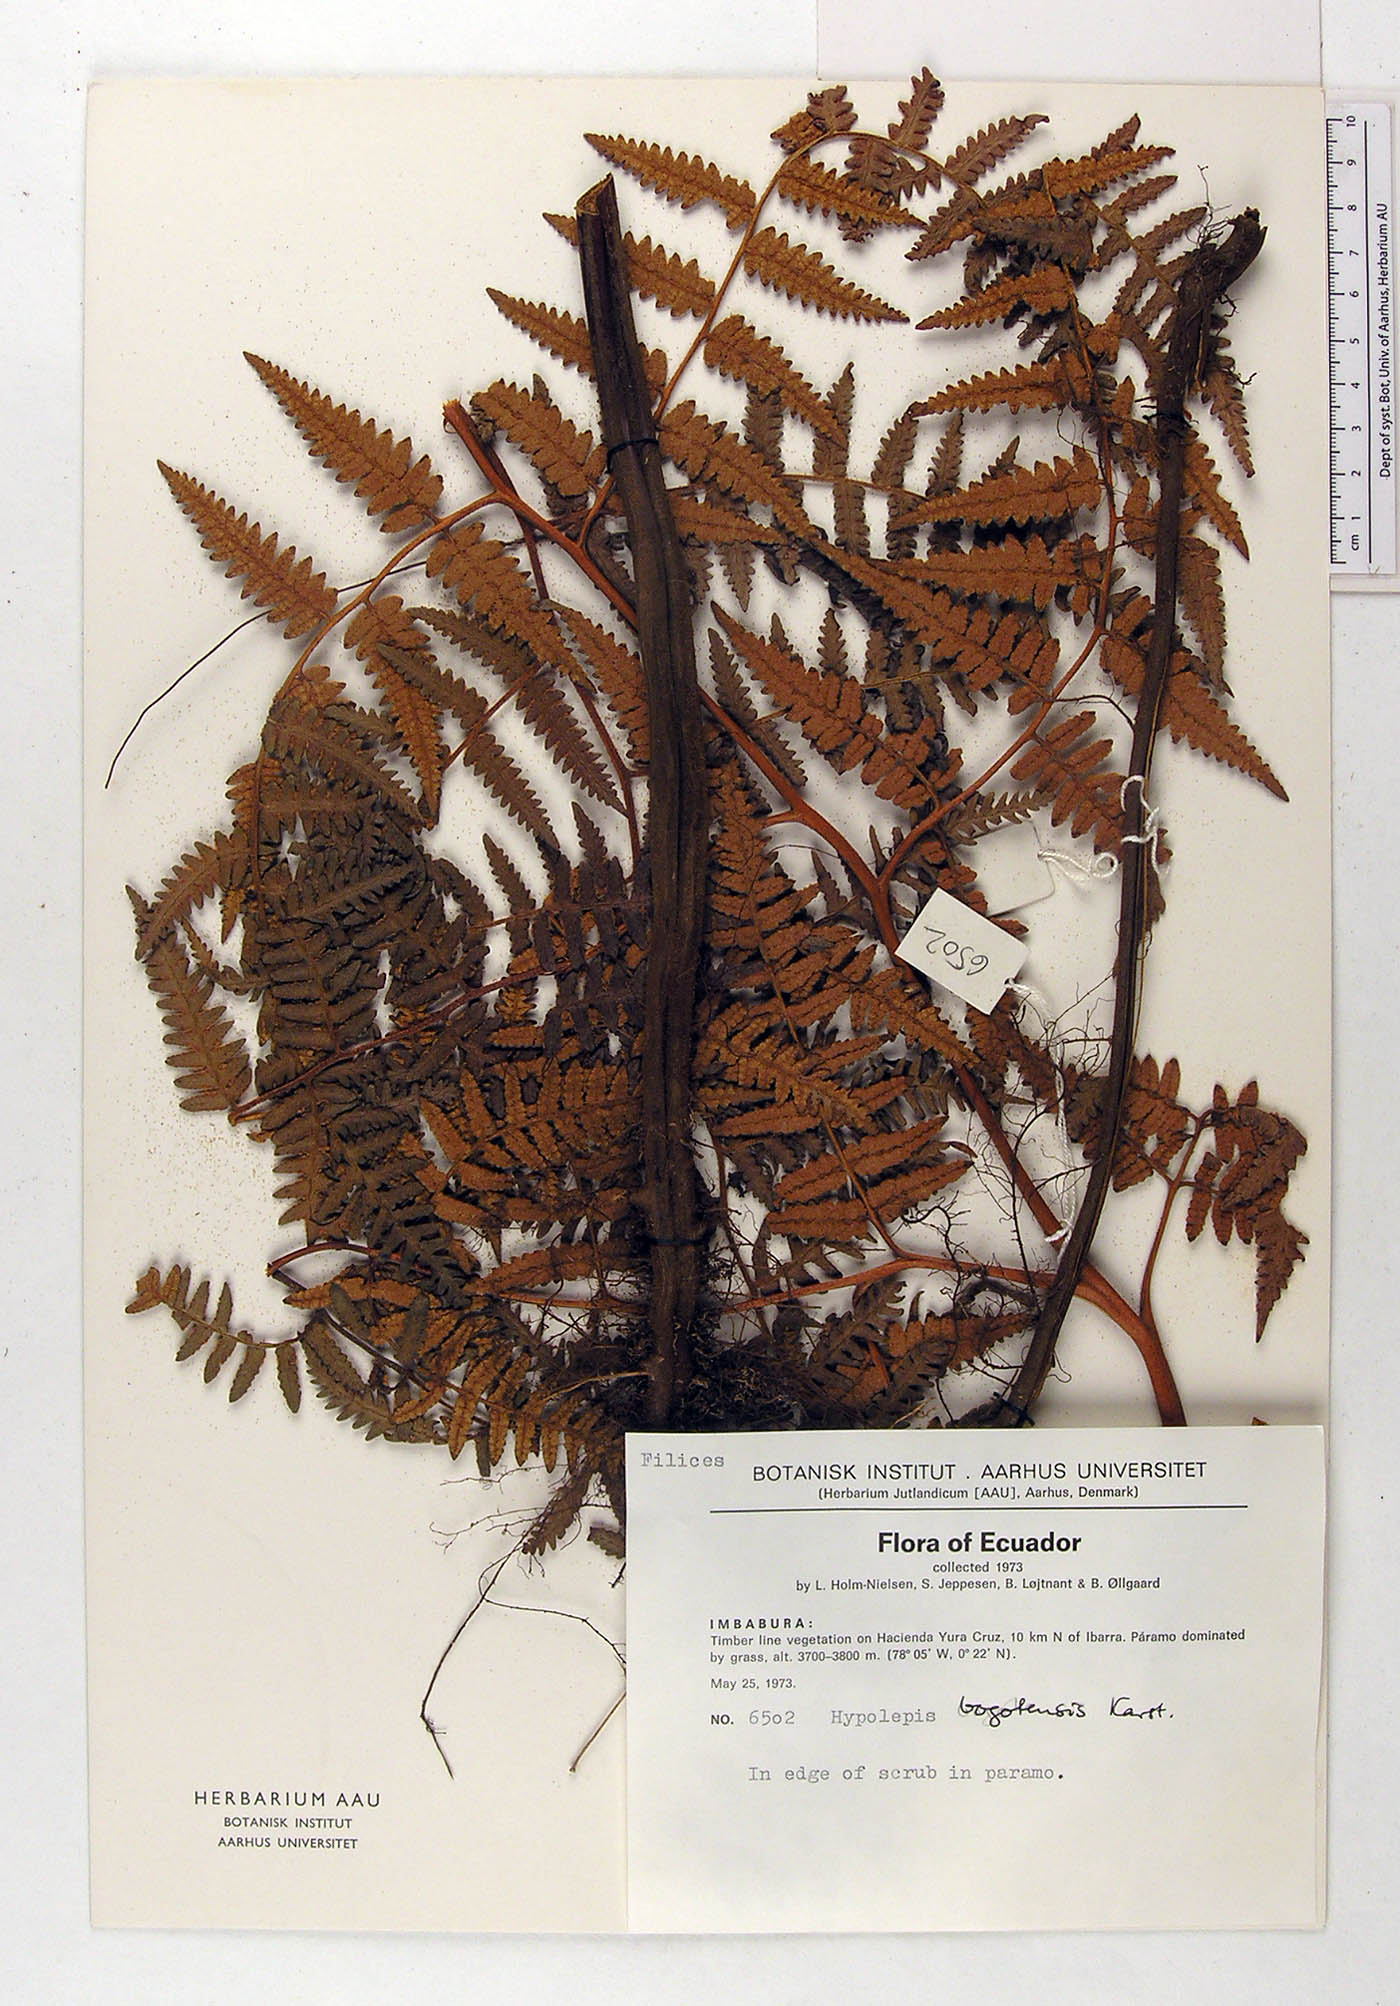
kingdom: Plantae
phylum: Tracheophyta
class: Polypodiopsida
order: Polypodiales
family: Dennstaedtiaceae
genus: Hypolepis
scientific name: Hypolepis bogotensis
